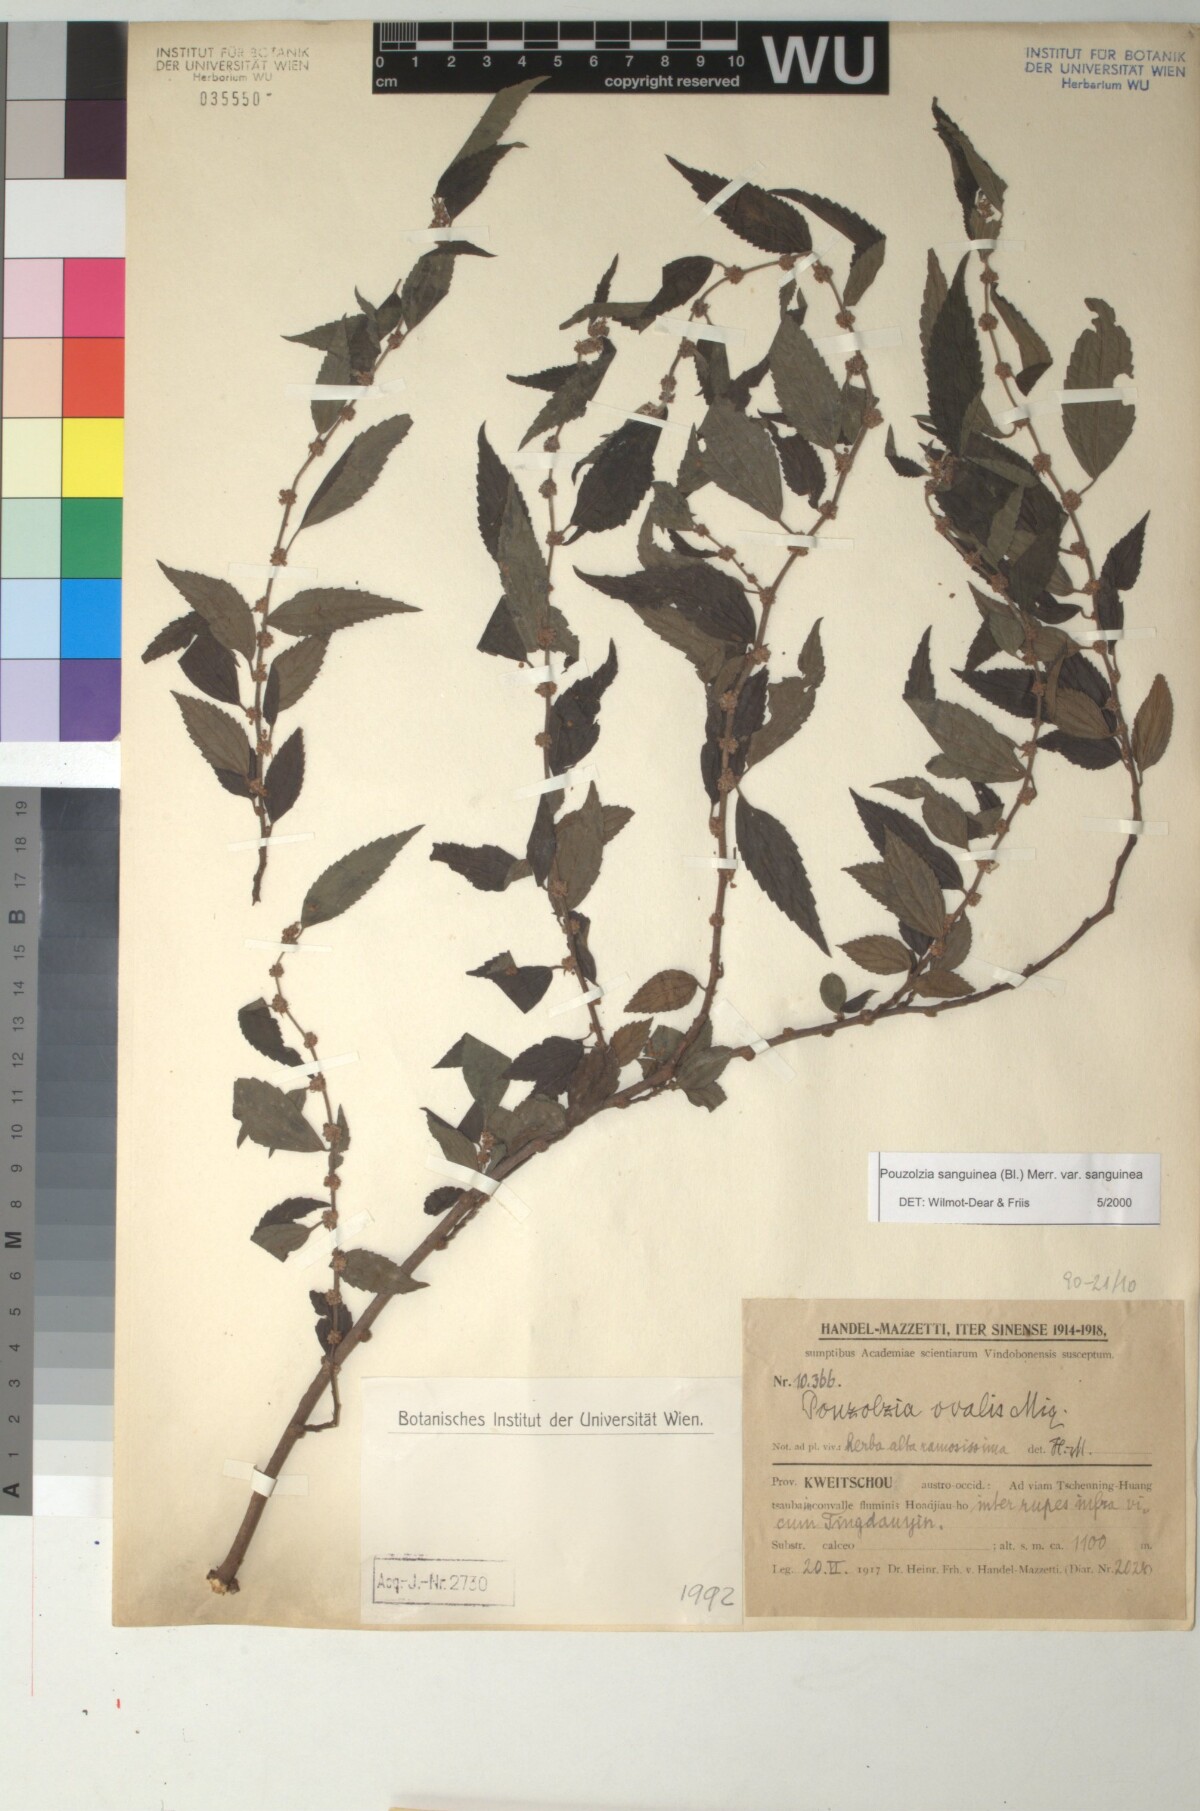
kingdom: Plantae
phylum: Tracheophyta
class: Magnoliopsida
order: Rosales
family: Urticaceae
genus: Pouzolzia
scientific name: Pouzolzia sanguinea
